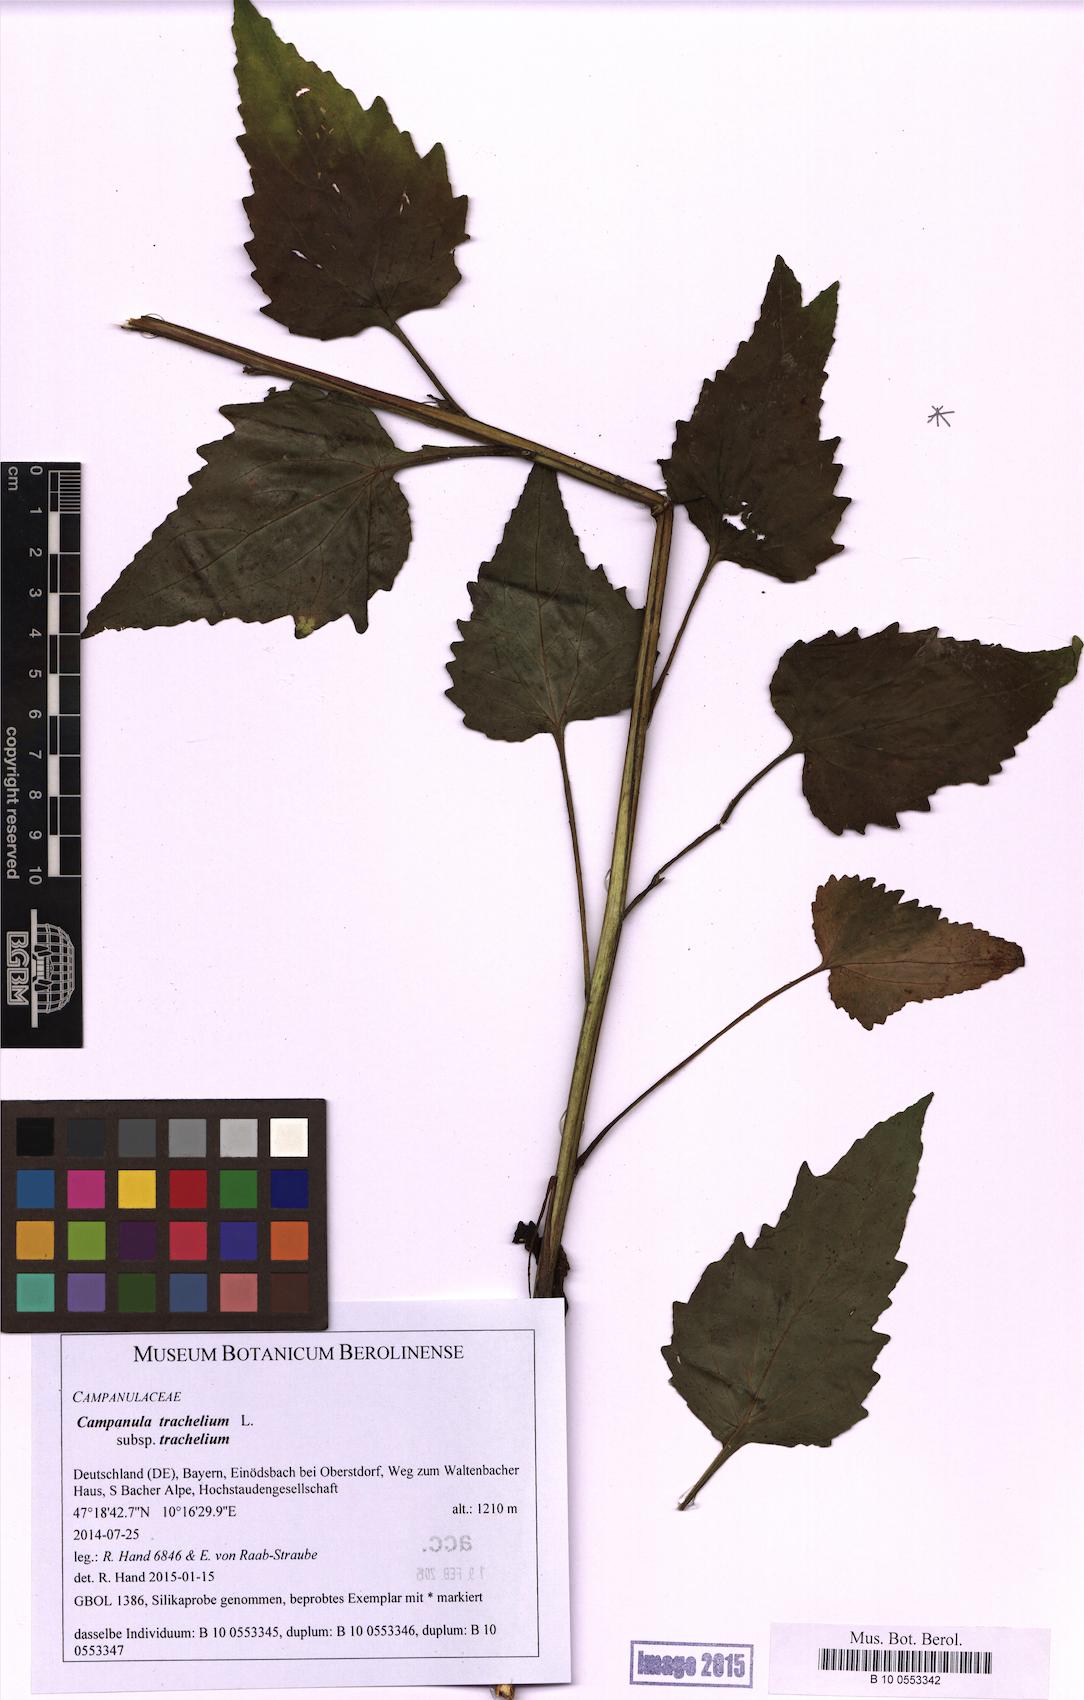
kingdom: Plantae
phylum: Tracheophyta
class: Magnoliopsida
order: Asterales
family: Campanulaceae
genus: Campanula
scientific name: Campanula trachelium
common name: Nettle-leaved bellflower
